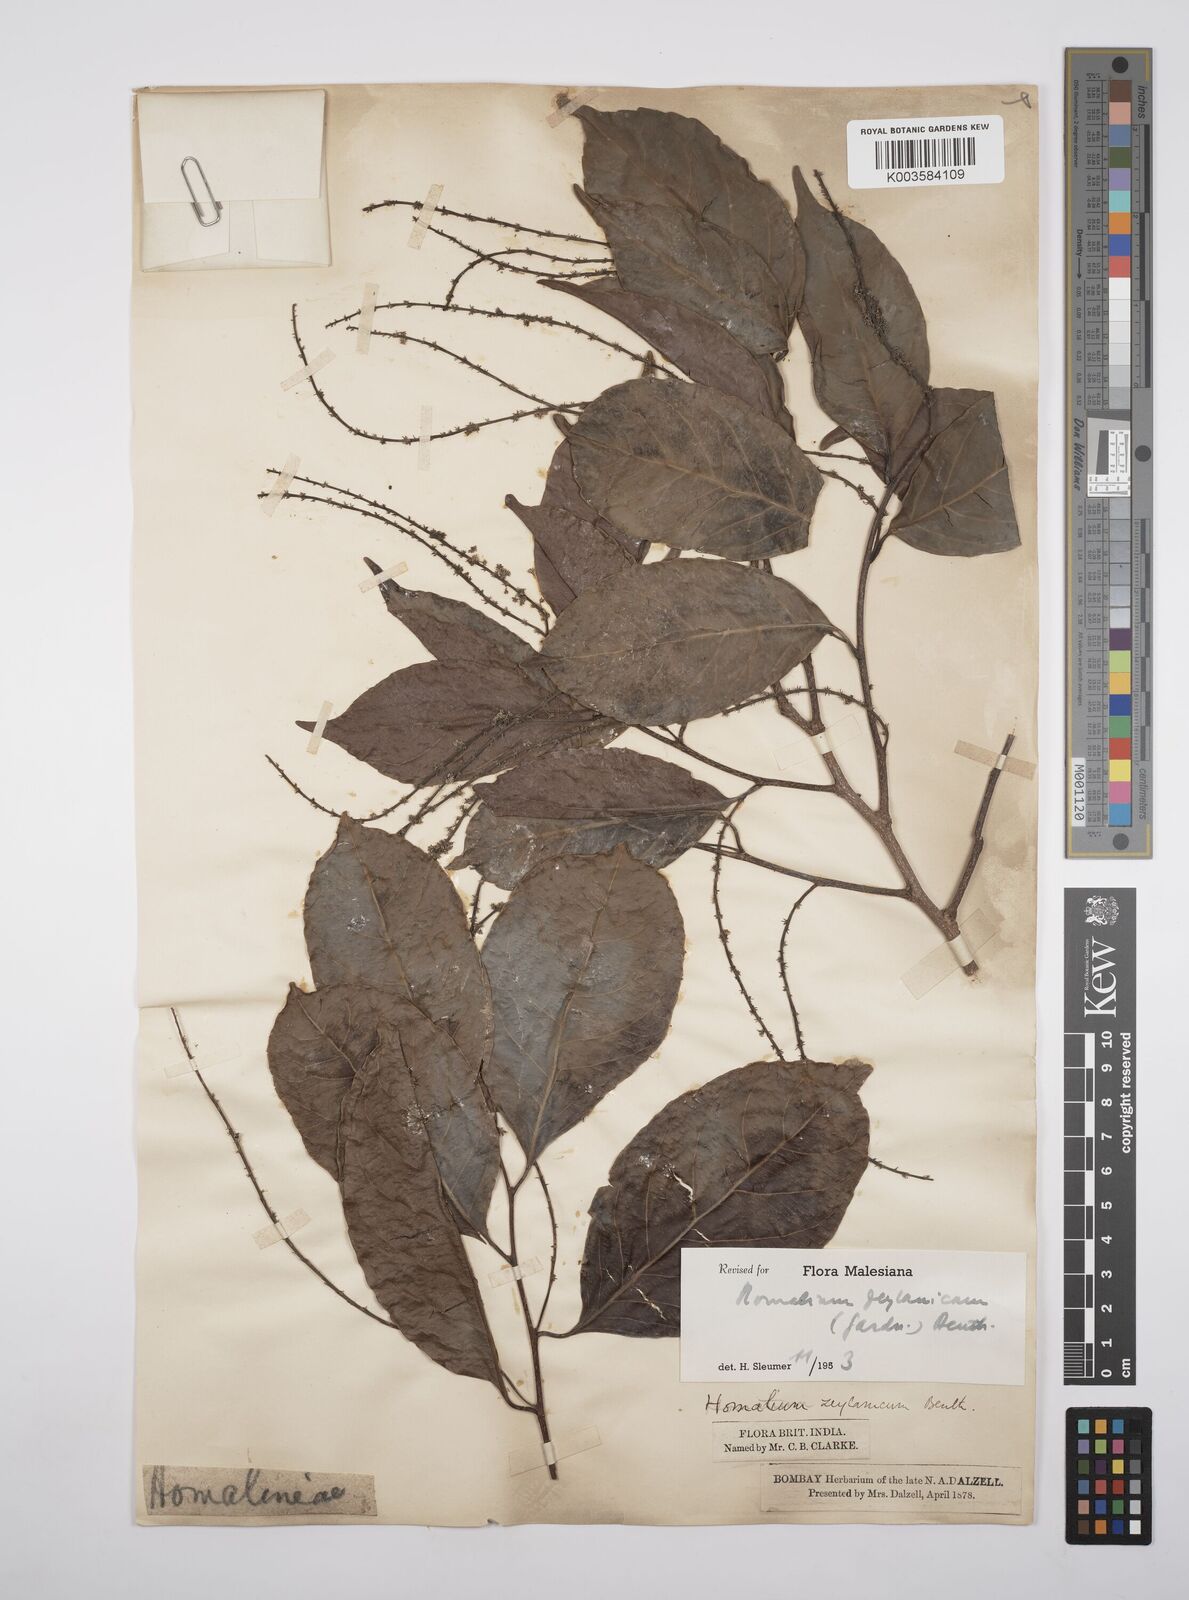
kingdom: Plantae
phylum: Tracheophyta
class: Magnoliopsida
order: Malpighiales
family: Salicaceae
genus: Homalium
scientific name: Homalium ceylanicum
